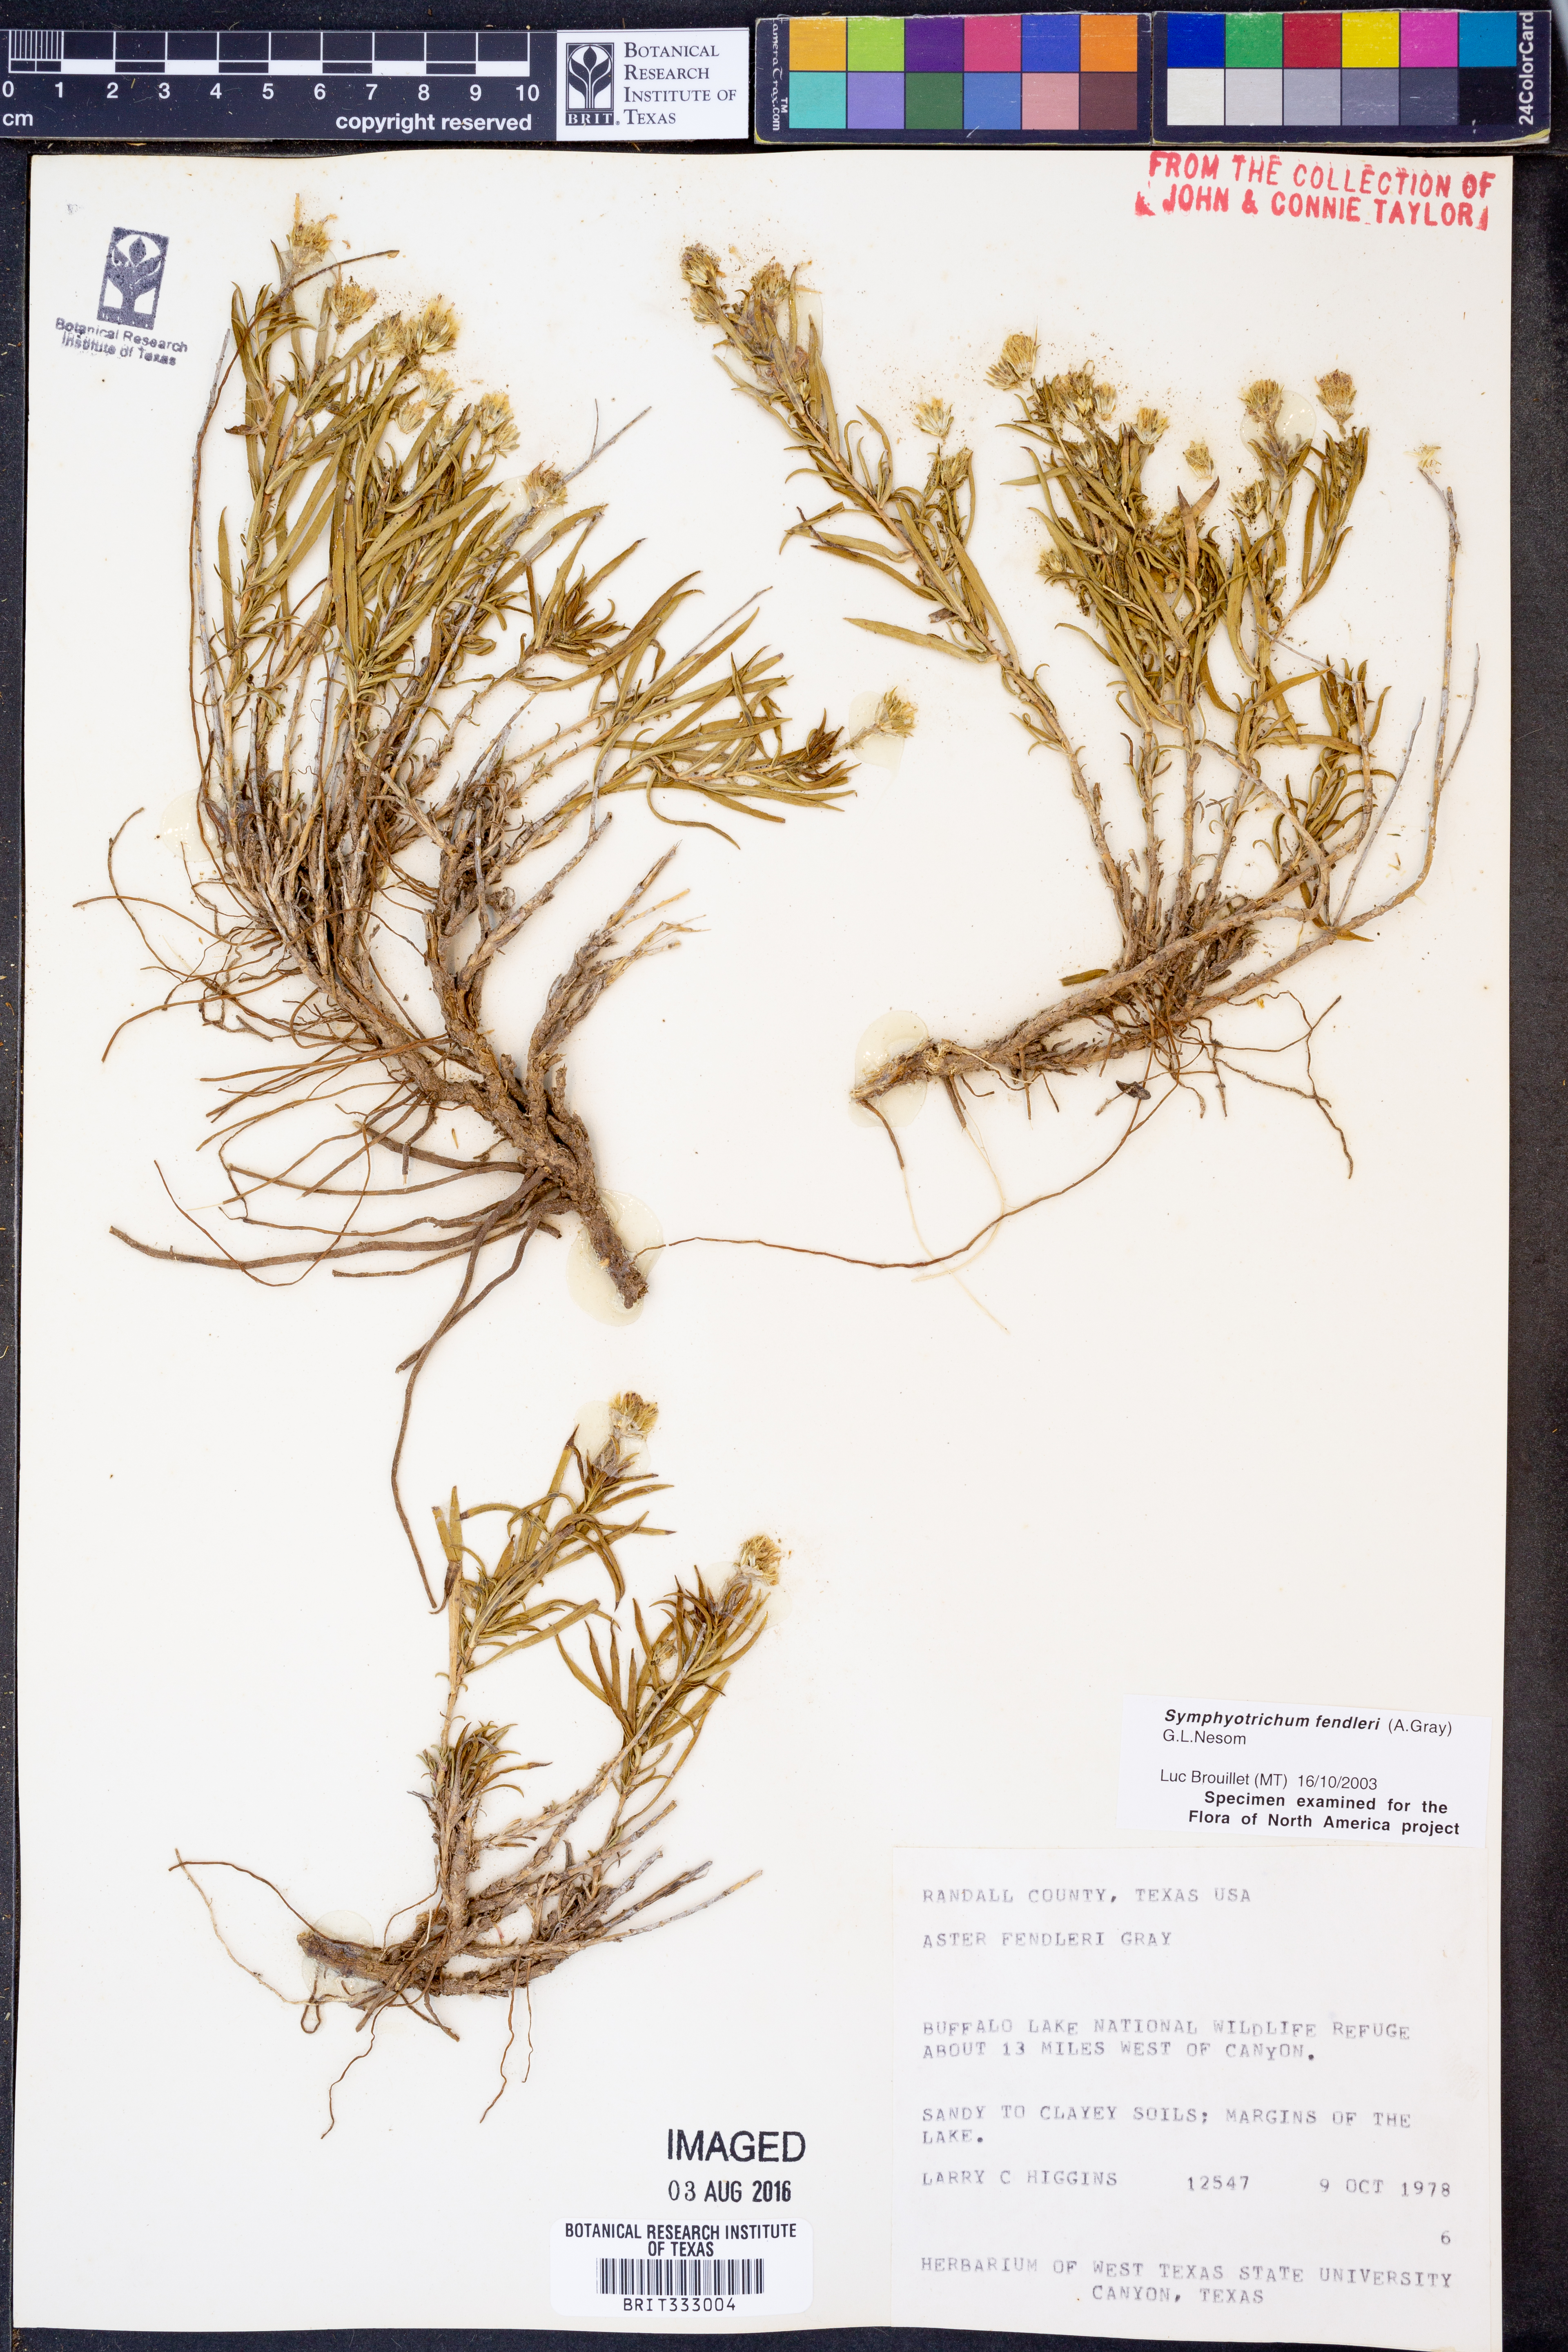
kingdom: Plantae
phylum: Tracheophyta
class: Magnoliopsida
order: Asterales
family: Asteraceae
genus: Symphyotrichum
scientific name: Symphyotrichum fendleri
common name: Fendler's aster
